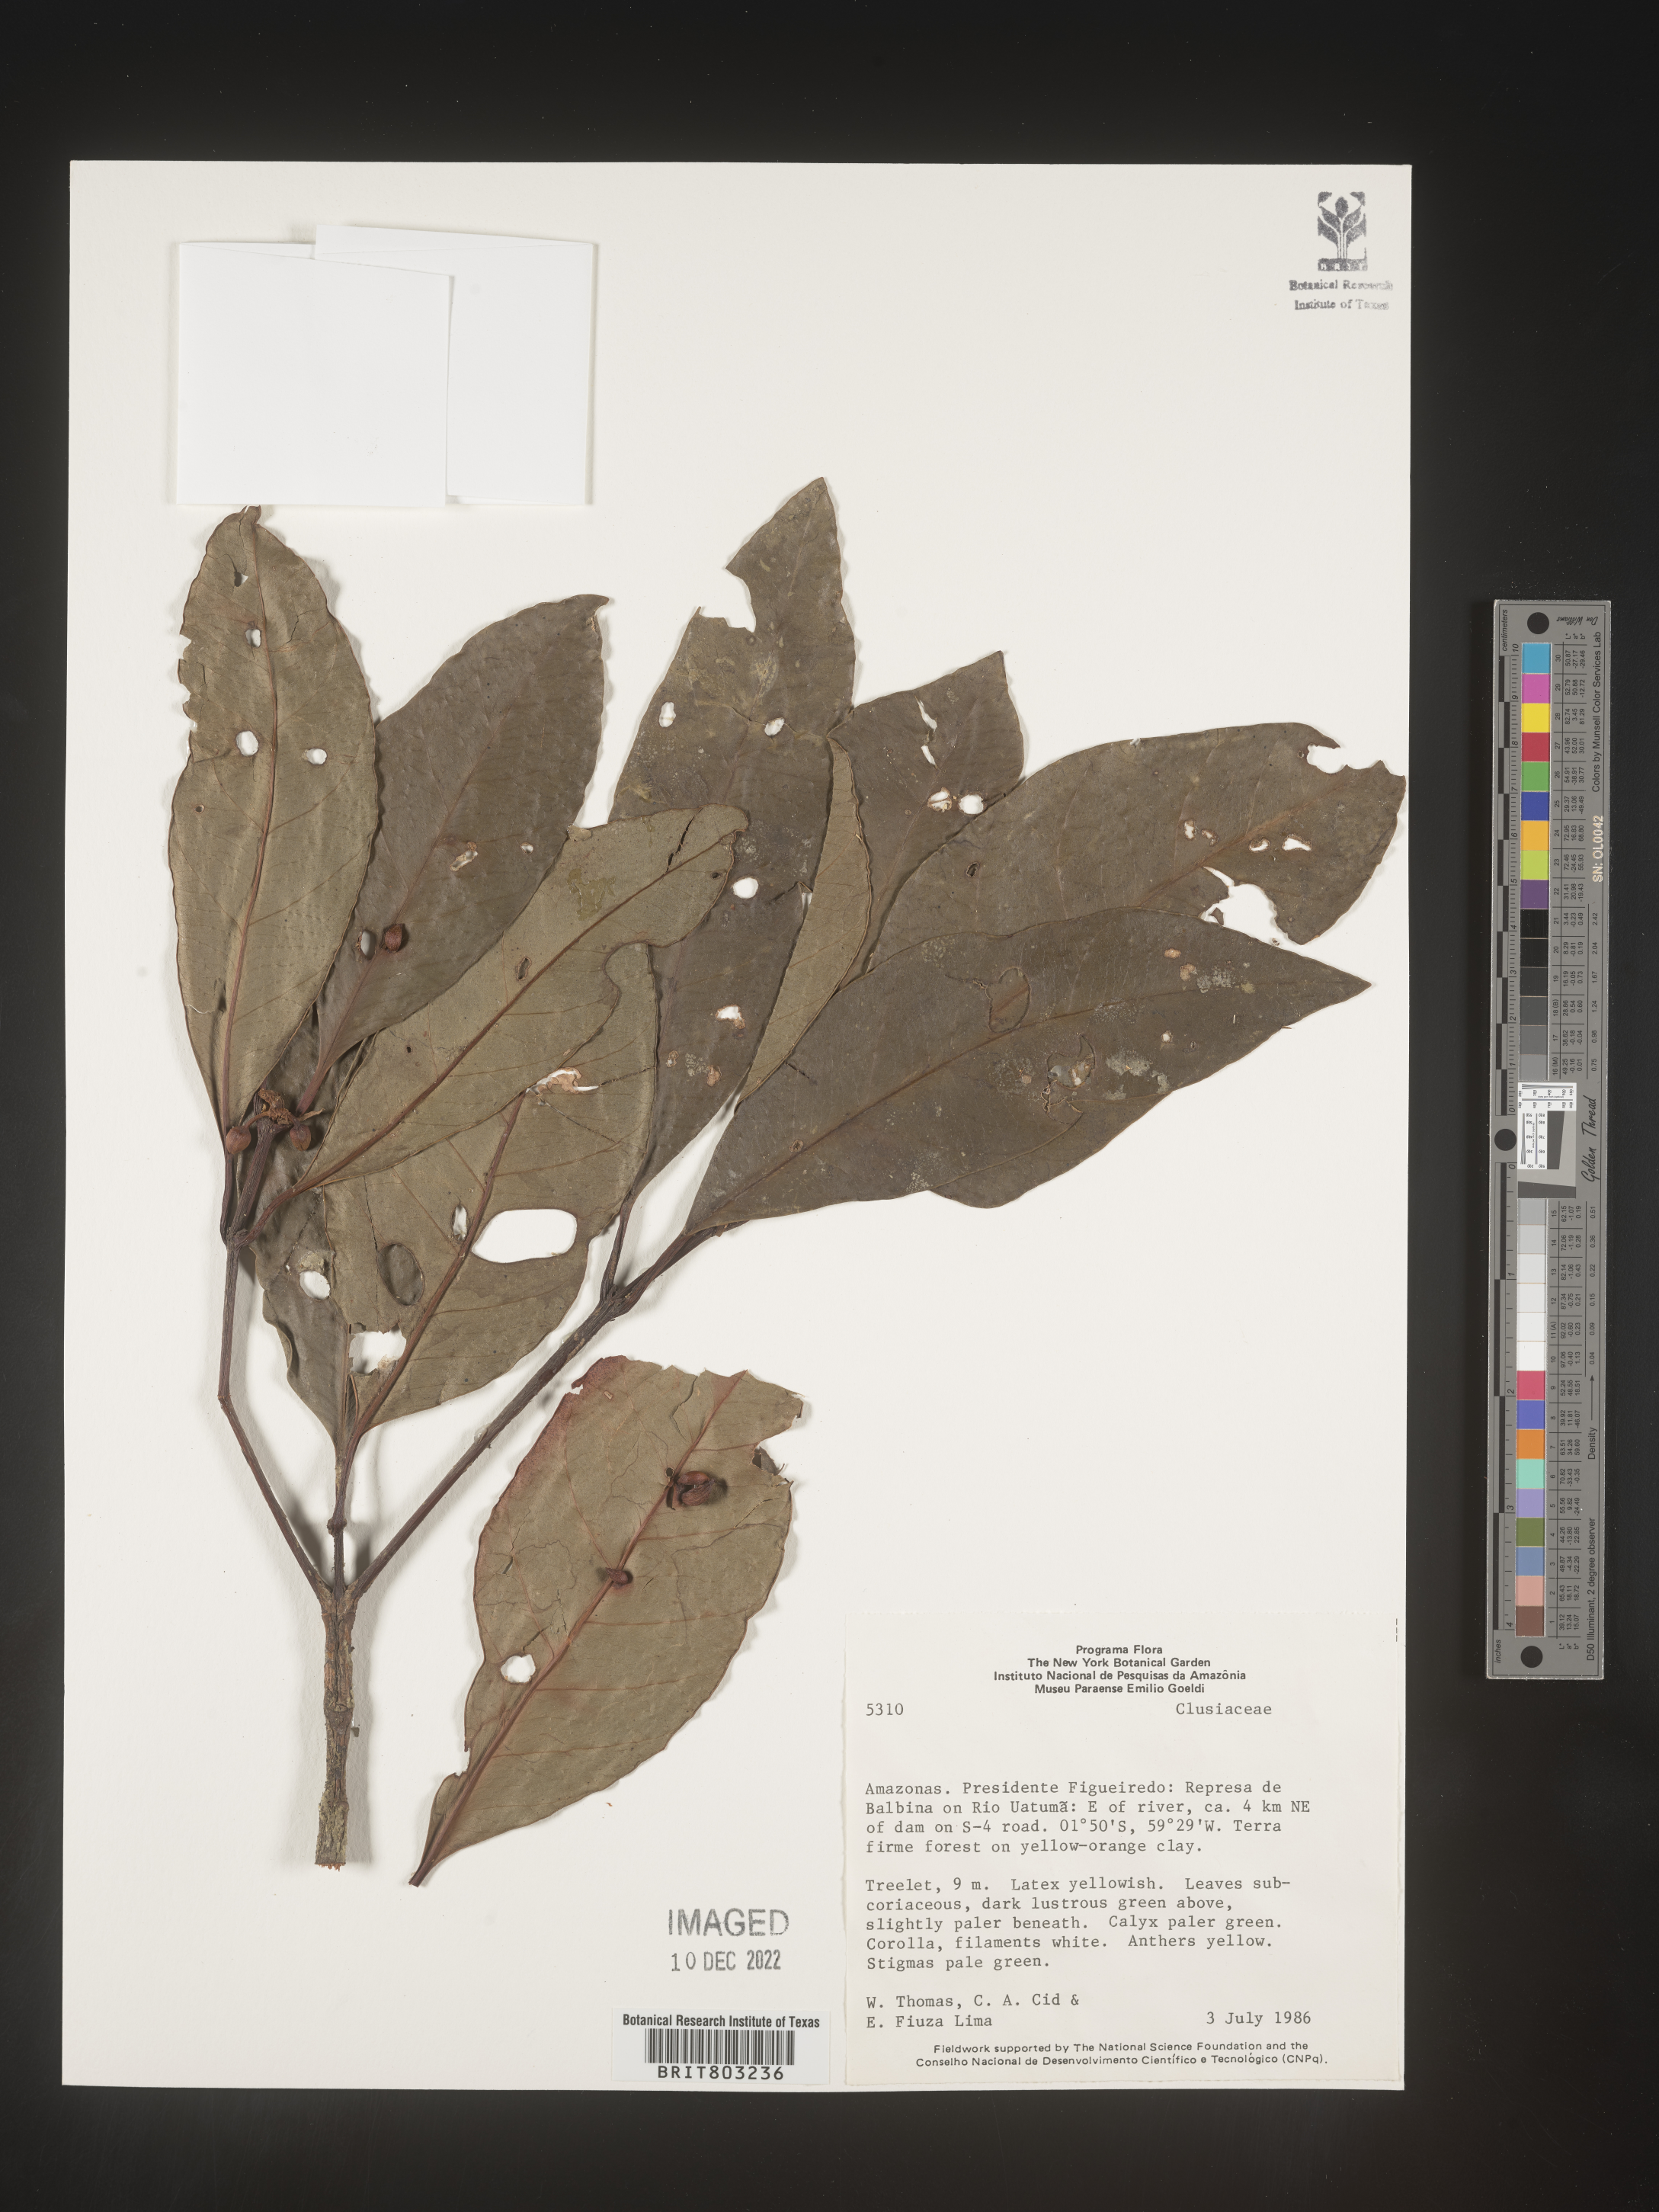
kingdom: Plantae
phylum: Tracheophyta
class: Magnoliopsida
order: Malpighiales
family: Clusiaceae
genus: Tovomita
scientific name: Tovomita
